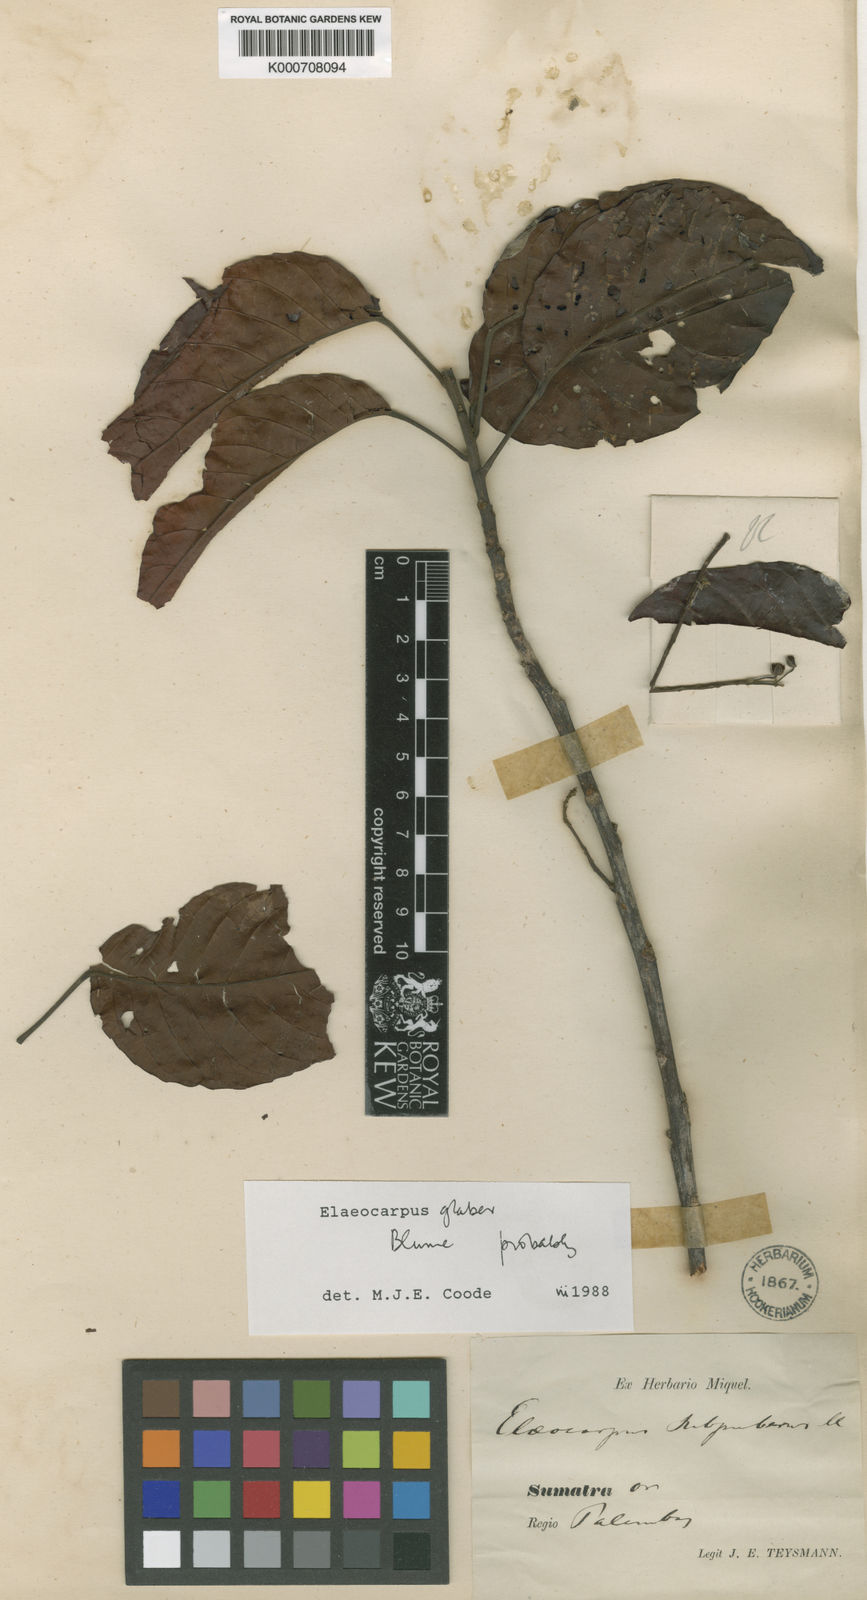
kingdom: Plantae
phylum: Tracheophyta
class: Magnoliopsida
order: Oxalidales
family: Elaeocarpaceae
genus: Elaeocarpus
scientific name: Elaeocarpus glaber
